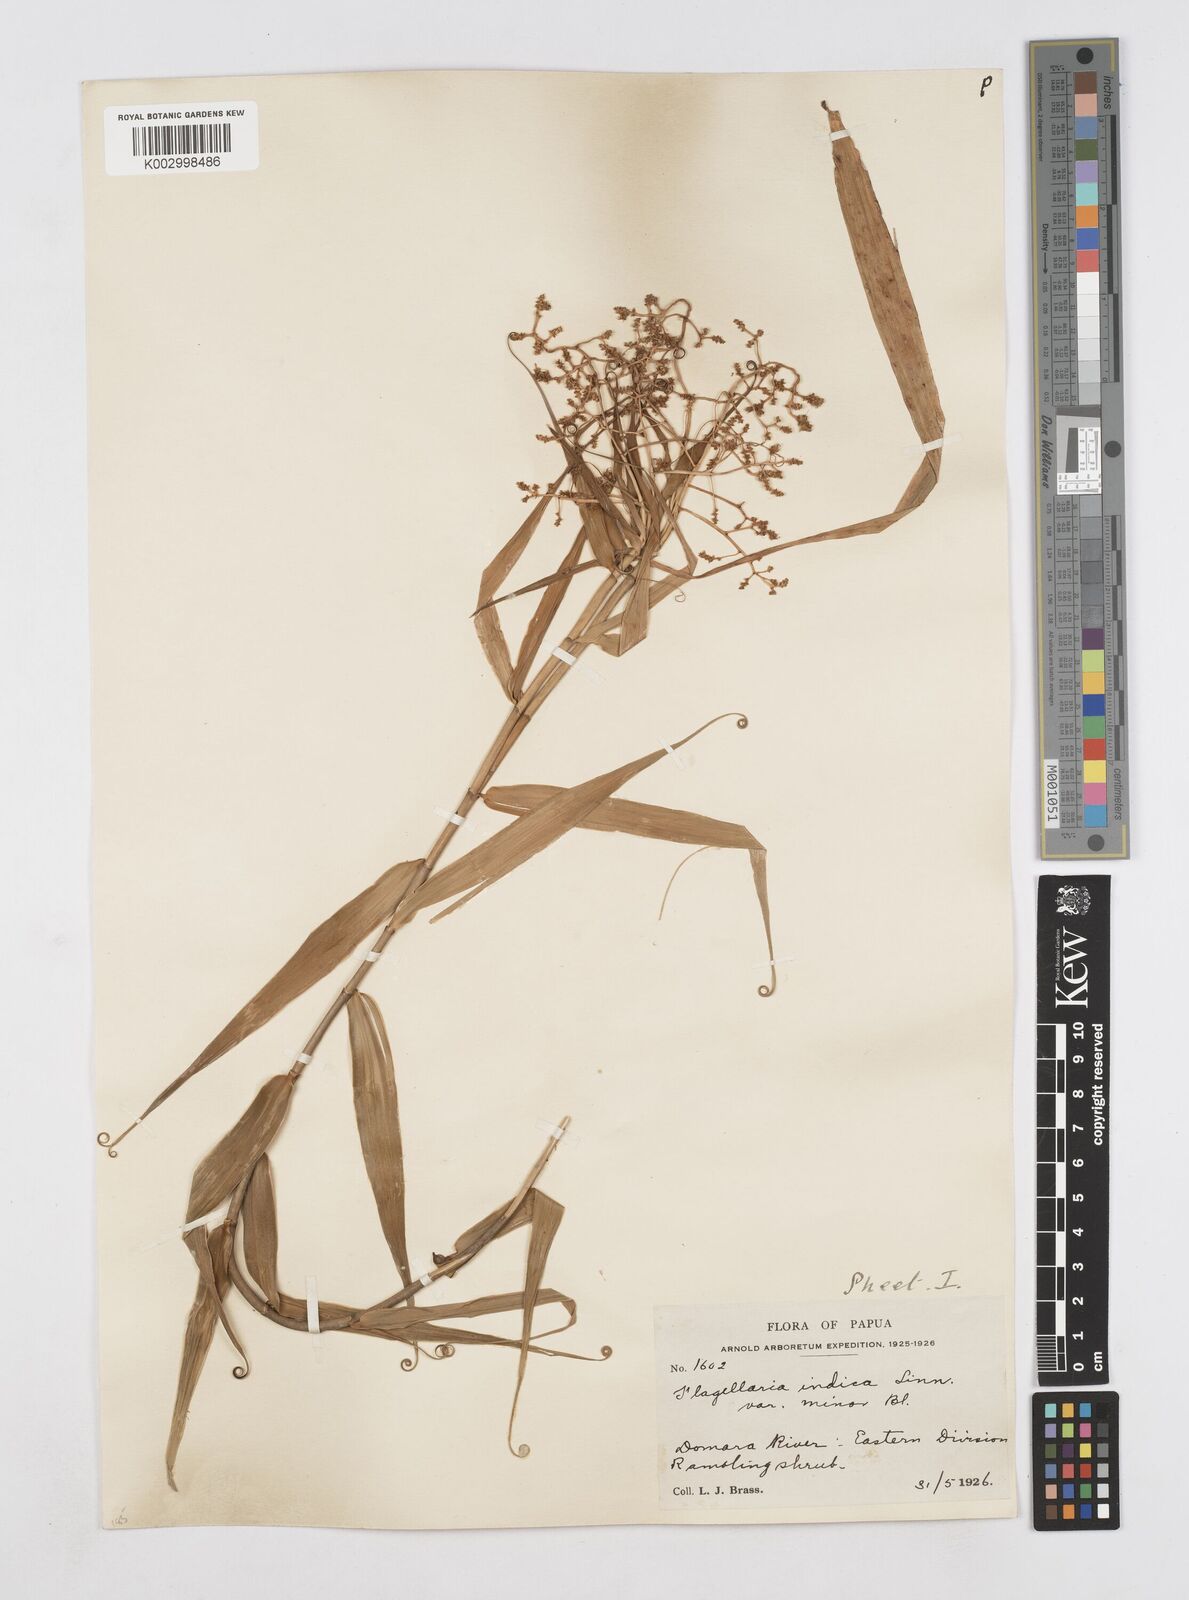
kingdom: Plantae
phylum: Tracheophyta
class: Liliopsida
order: Poales
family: Flagellariaceae
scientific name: Flagellariaceae
